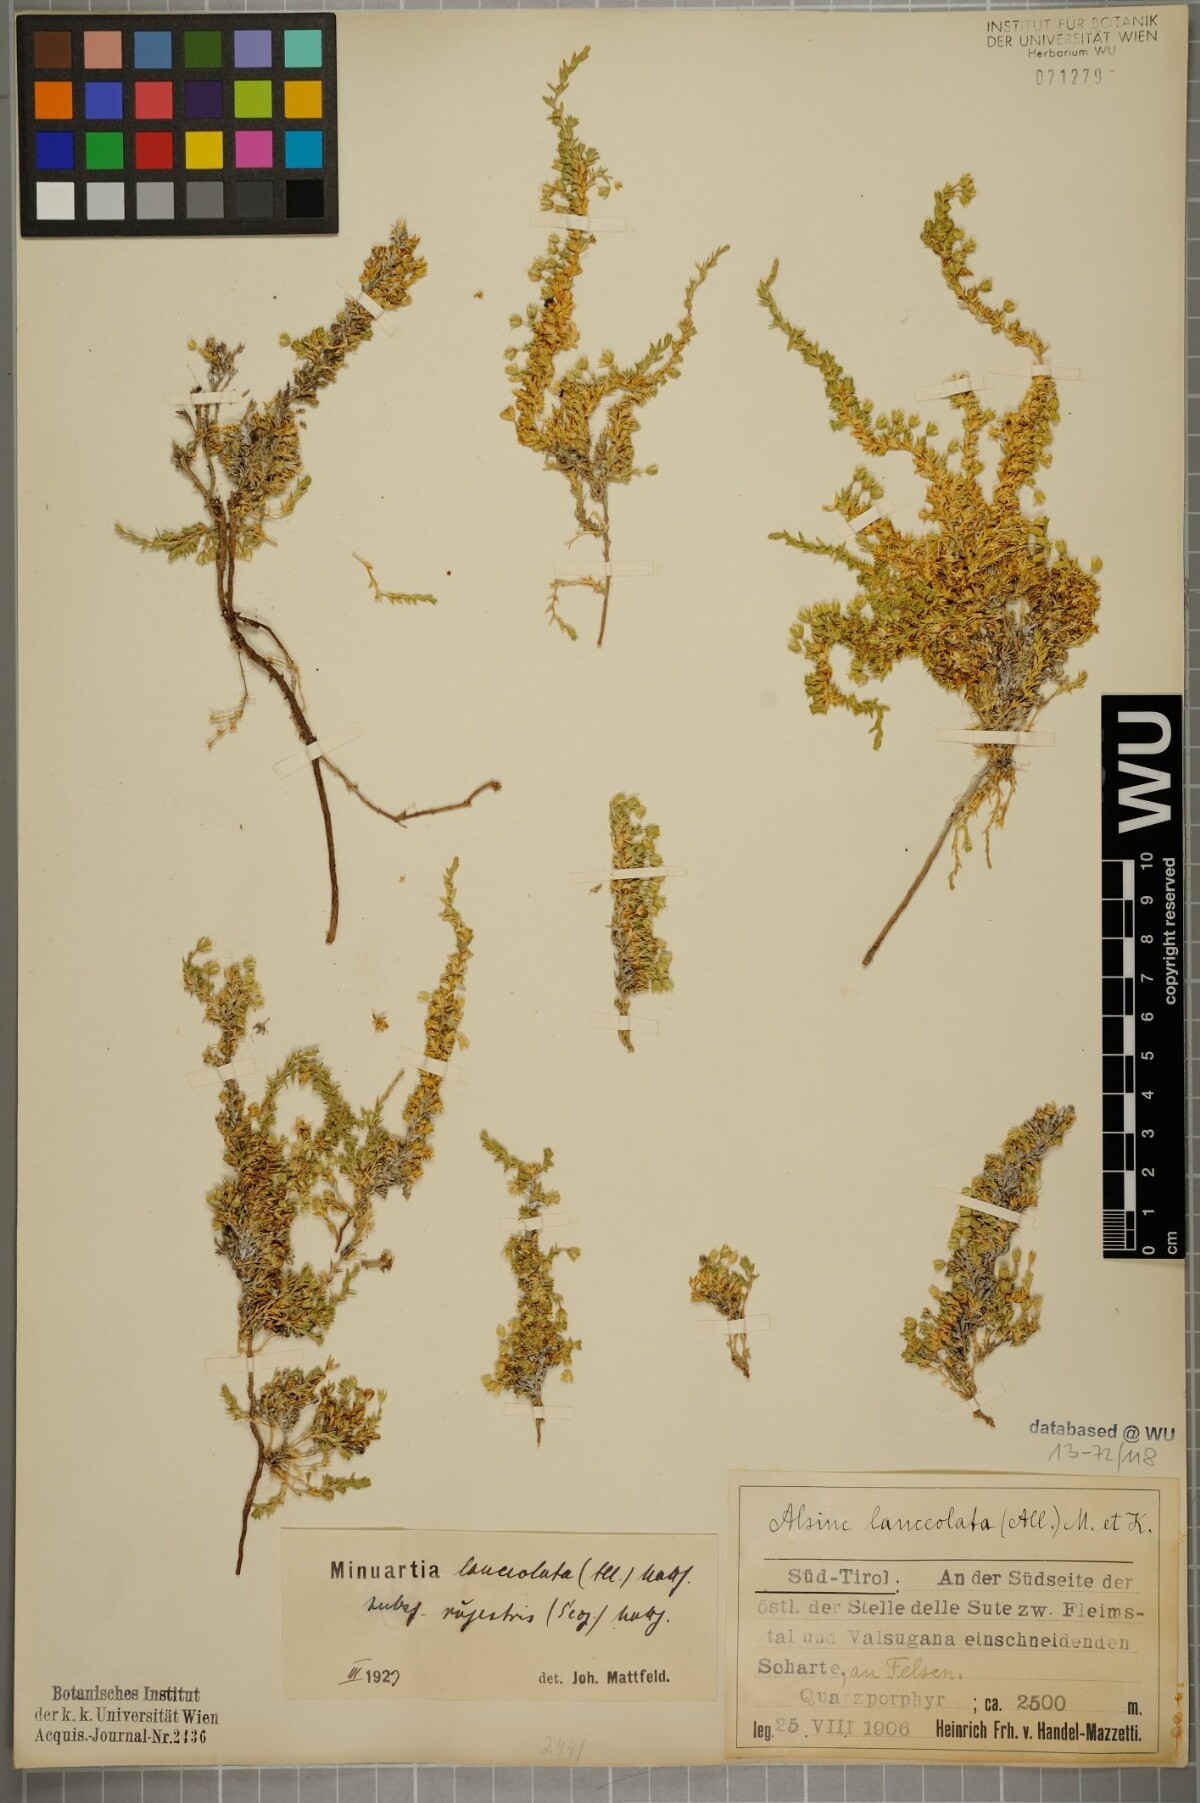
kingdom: Plantae
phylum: Tracheophyta
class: Magnoliopsida
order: Caryophyllales
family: Caryophyllaceae
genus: Facchinia
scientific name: Facchinia rupestris
